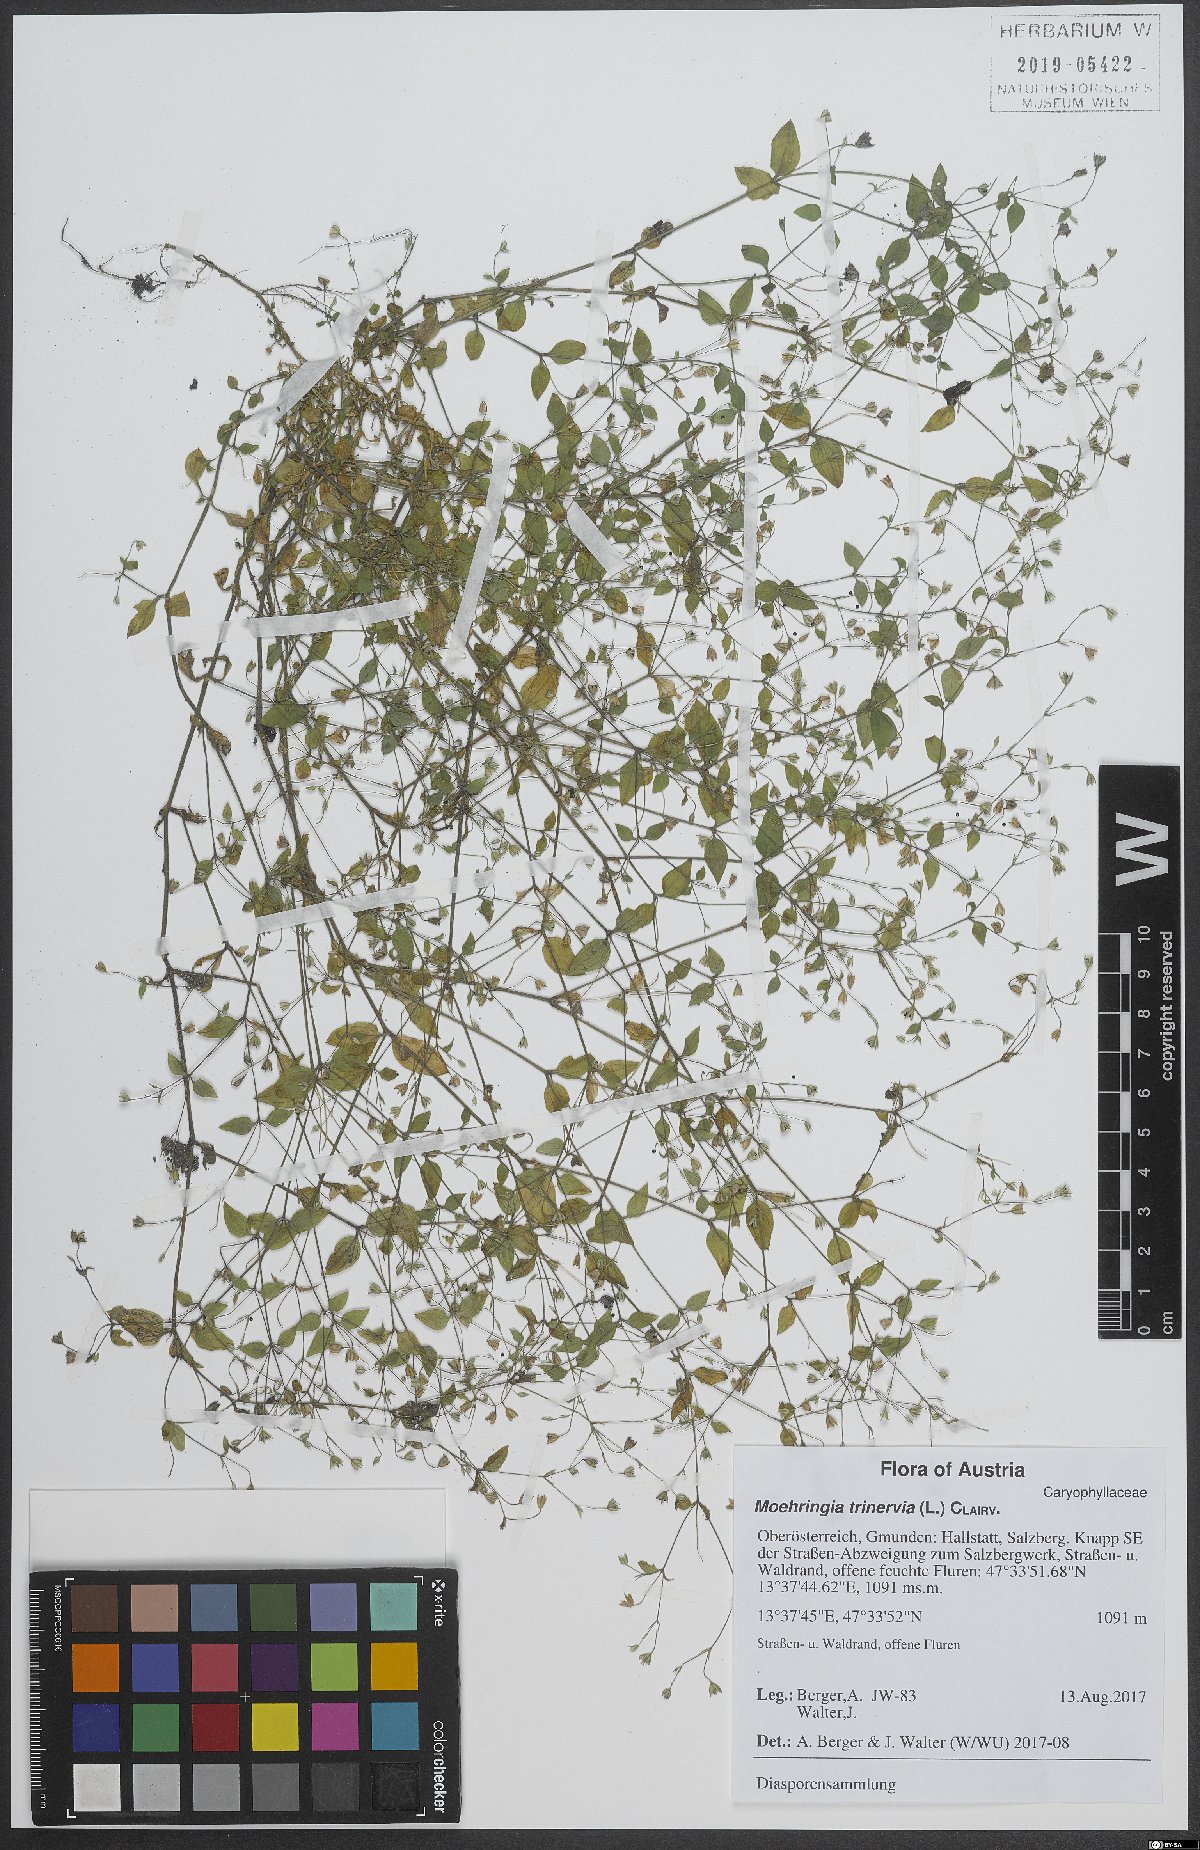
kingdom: Plantae
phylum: Tracheophyta
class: Magnoliopsida
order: Caryophyllales
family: Caryophyllaceae
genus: Moehringia
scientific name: Moehringia trinervia
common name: Three-nerved sandwort
